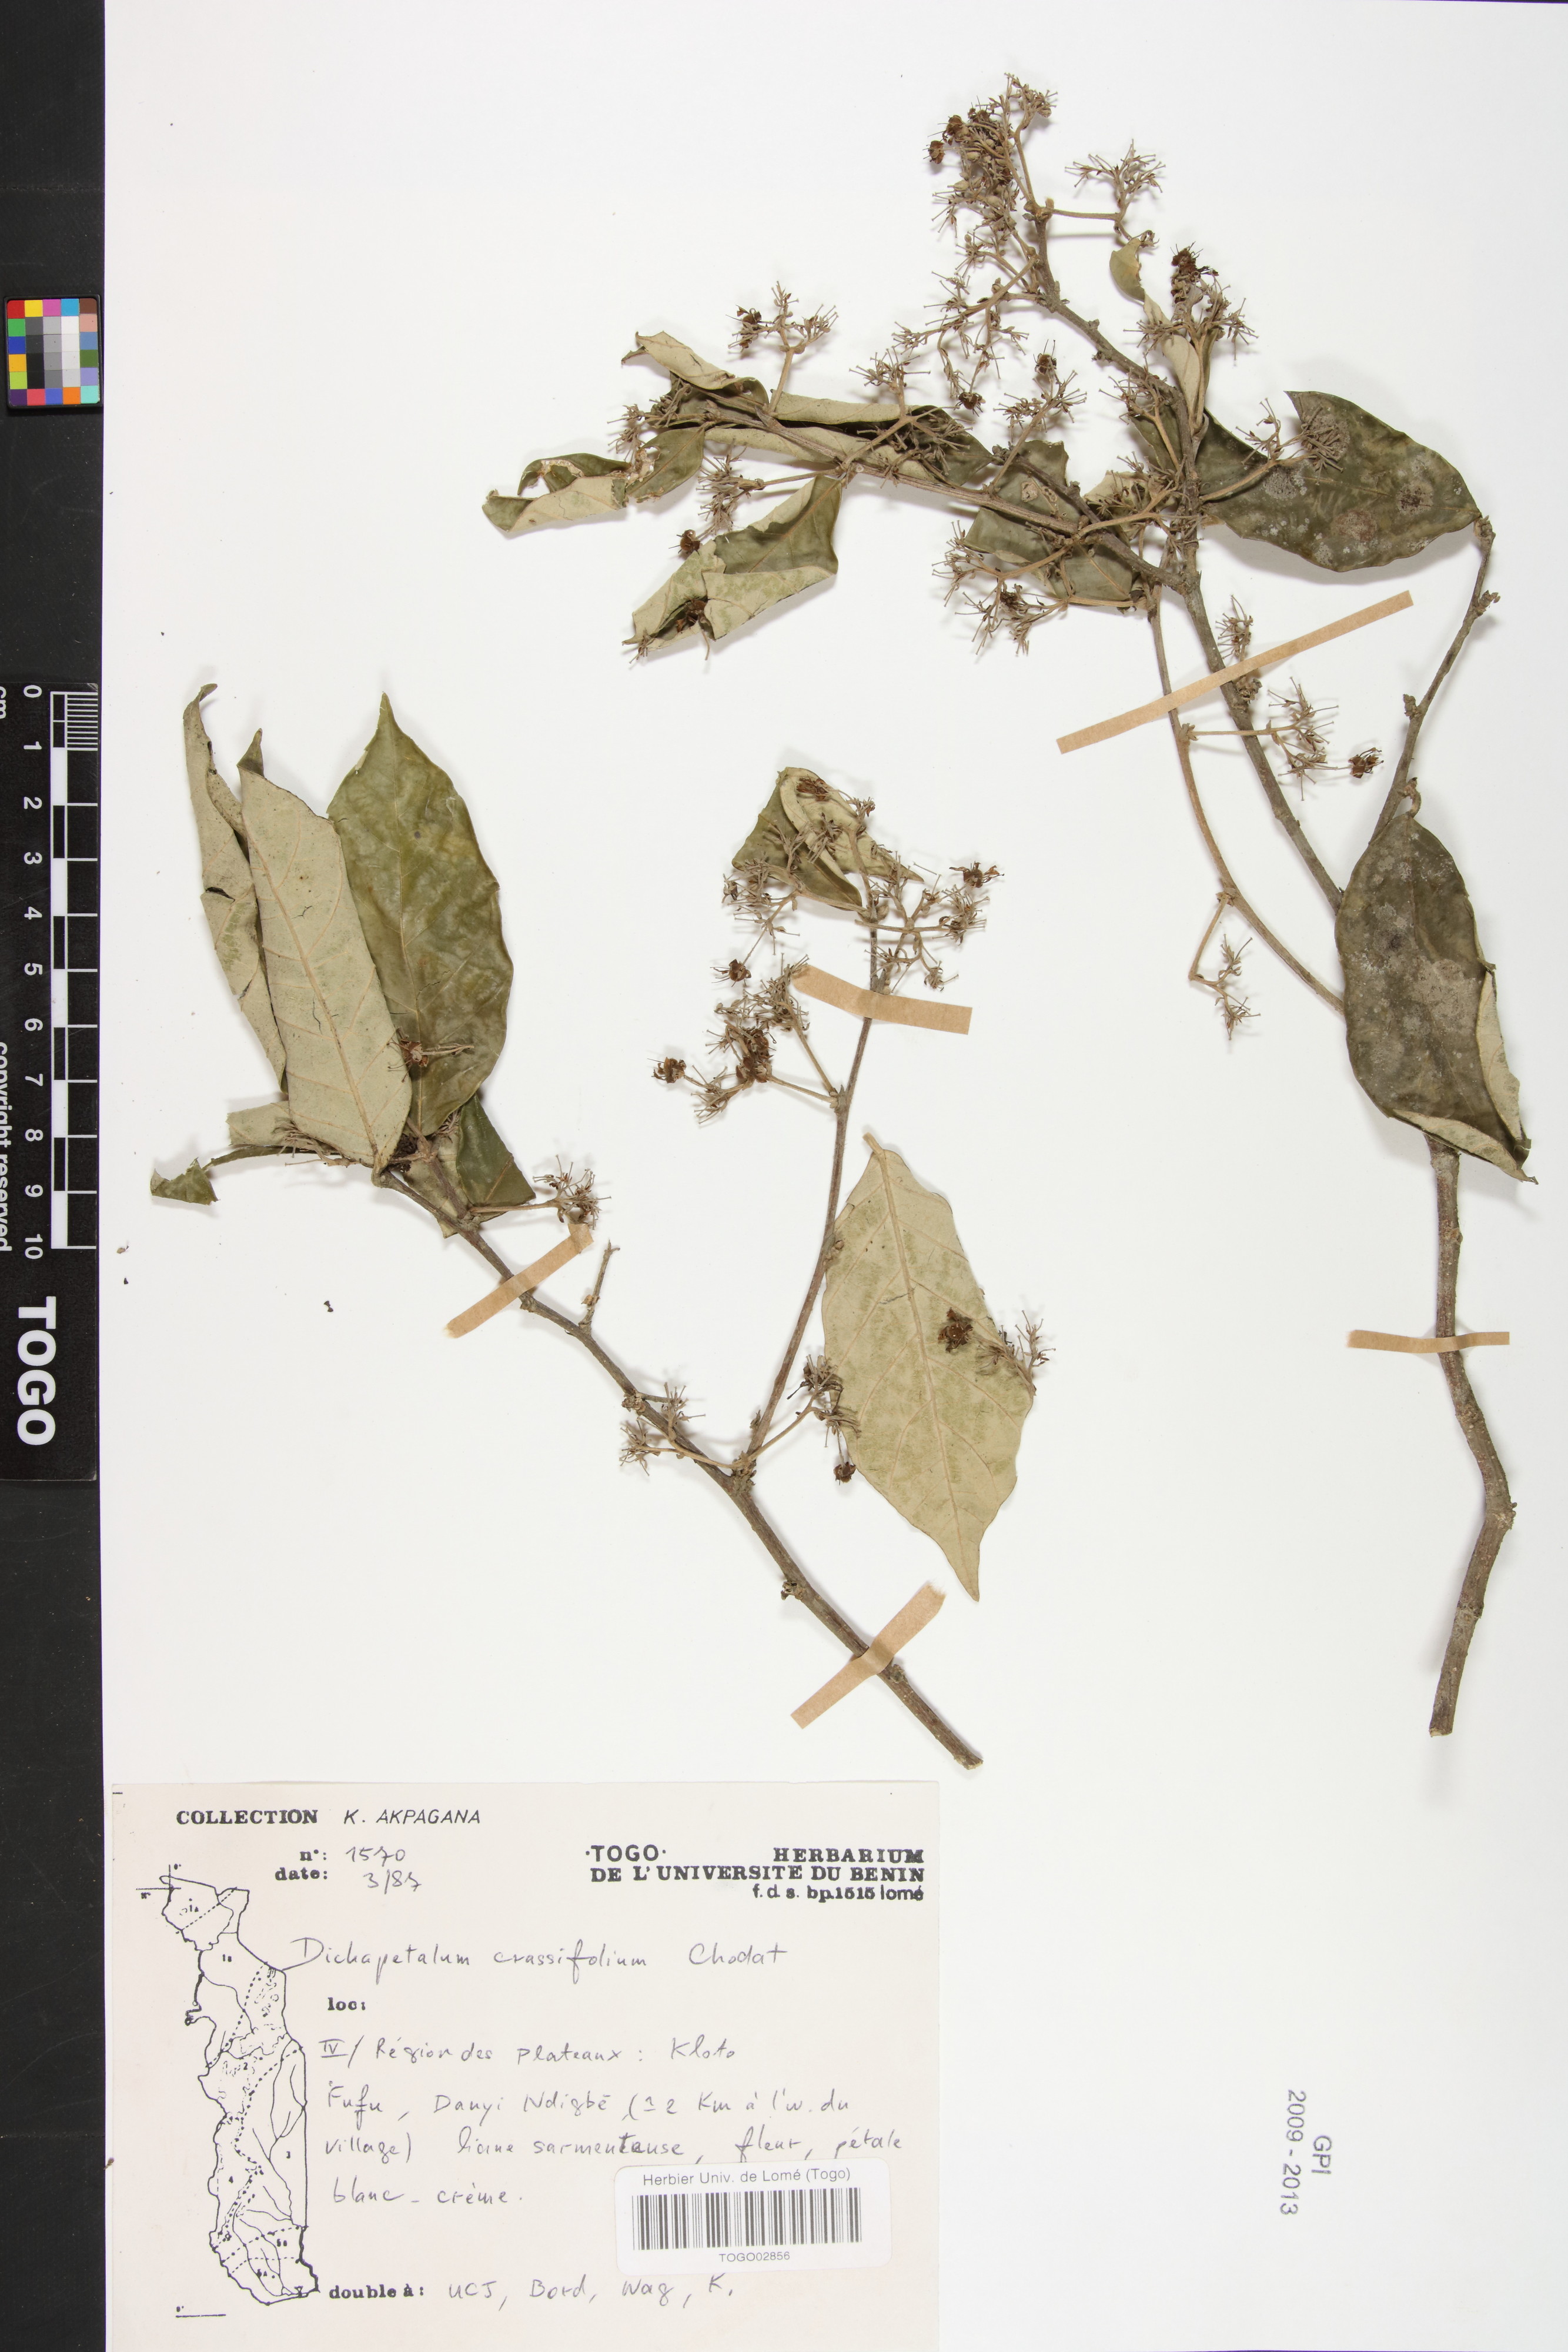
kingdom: Plantae
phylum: Tracheophyta
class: Magnoliopsida
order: Malpighiales
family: Dichapetalaceae
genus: Dichapetalum
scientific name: Dichapetalum crassifolium
